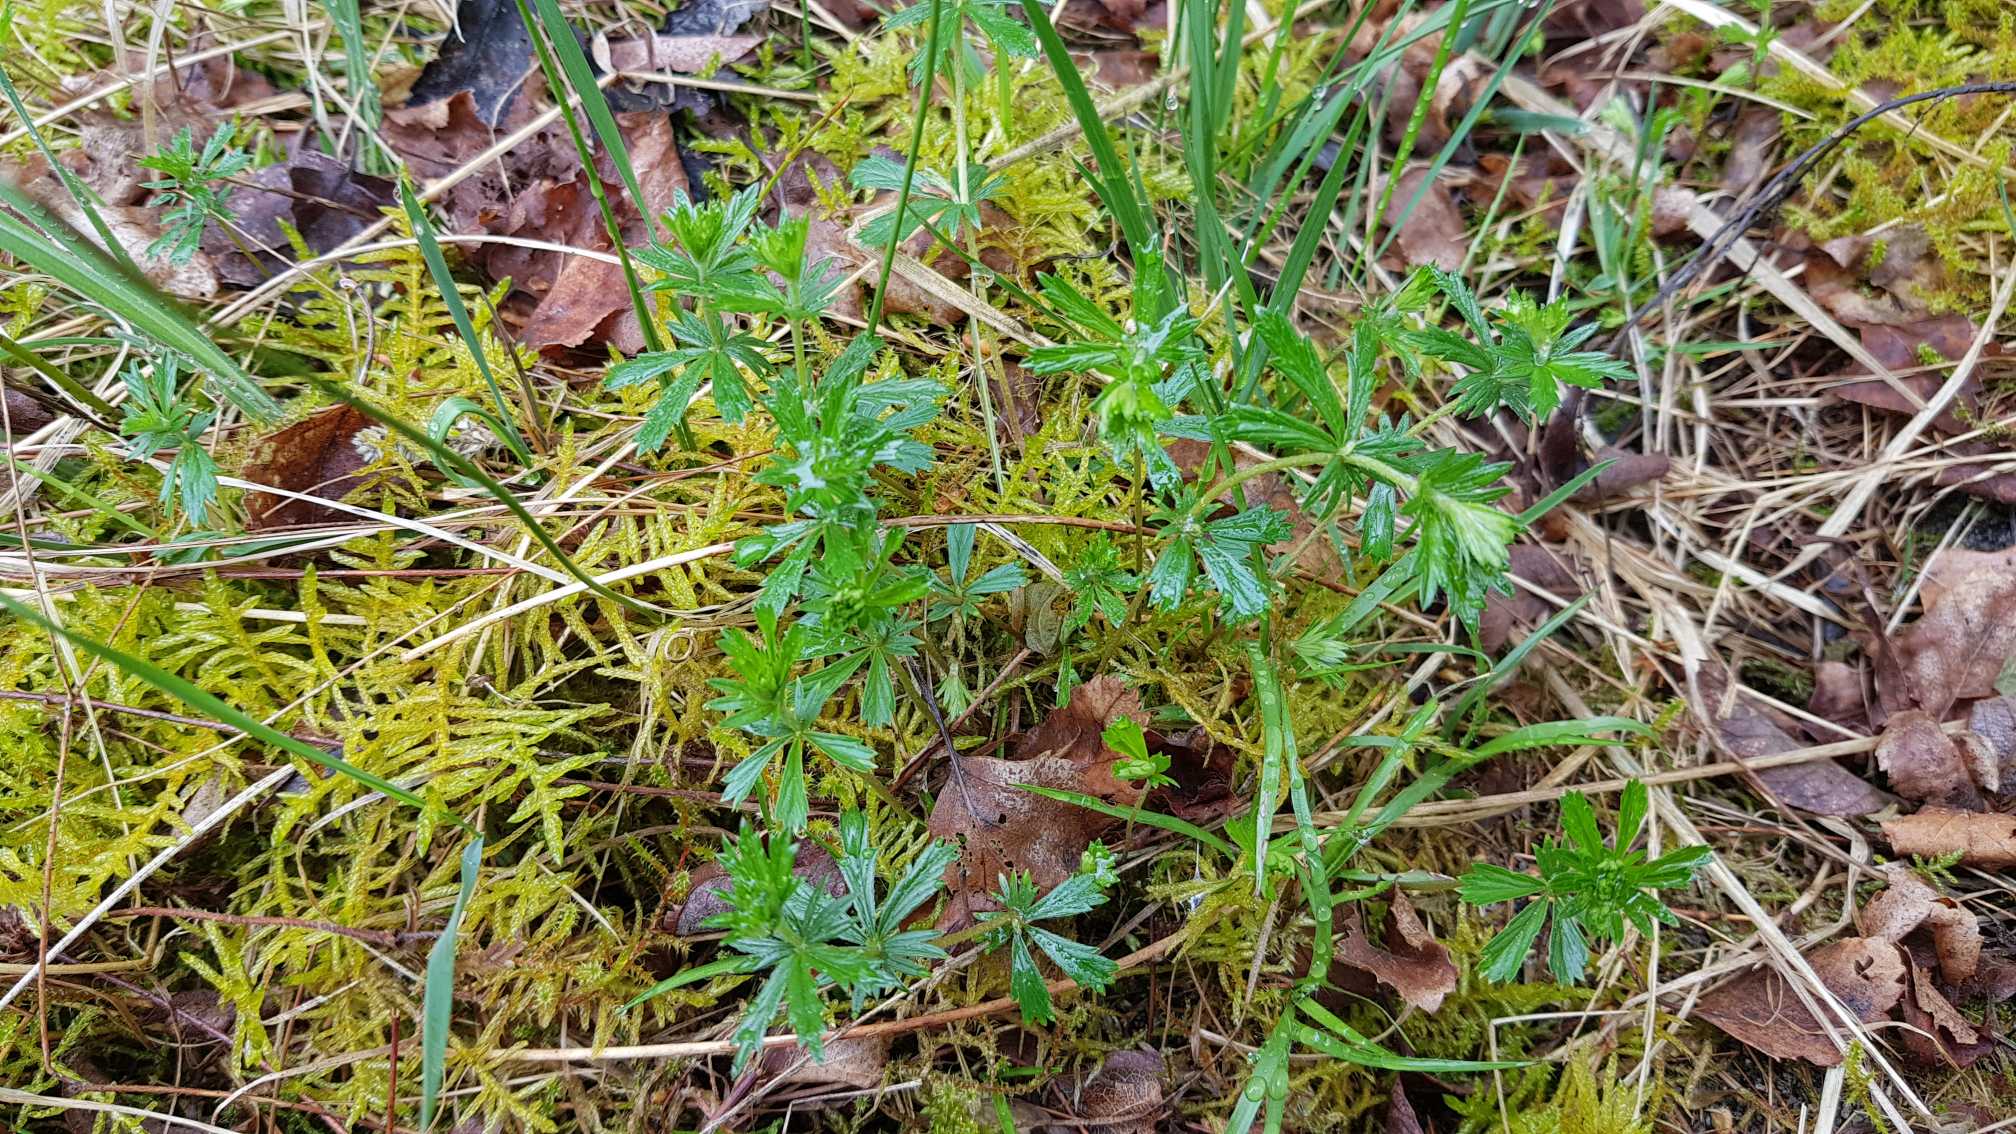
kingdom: Plantae
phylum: Tracheophyta
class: Magnoliopsida
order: Rosales
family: Rosaceae
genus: Potentilla
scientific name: Potentilla erecta
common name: Tormentil
